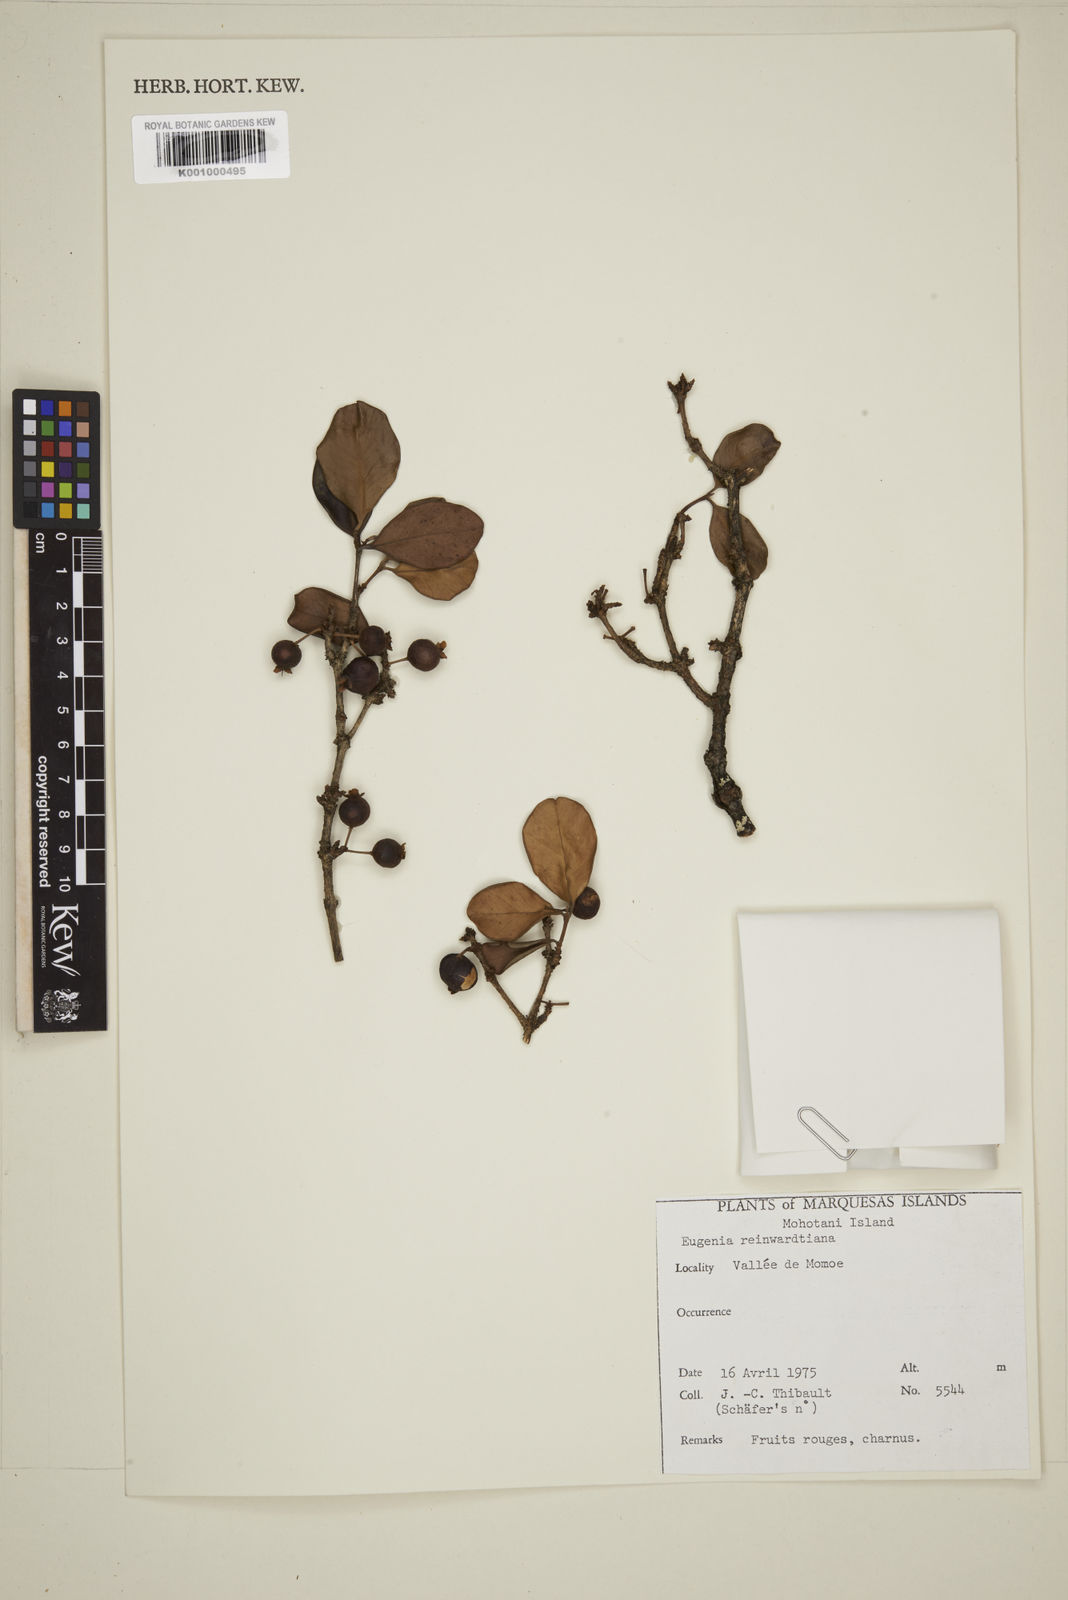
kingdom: Plantae
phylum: Tracheophyta
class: Magnoliopsida
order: Myrtales
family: Myrtaceae
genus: Eugenia
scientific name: Eugenia reinwardtiana
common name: Cedar bay-cherry
